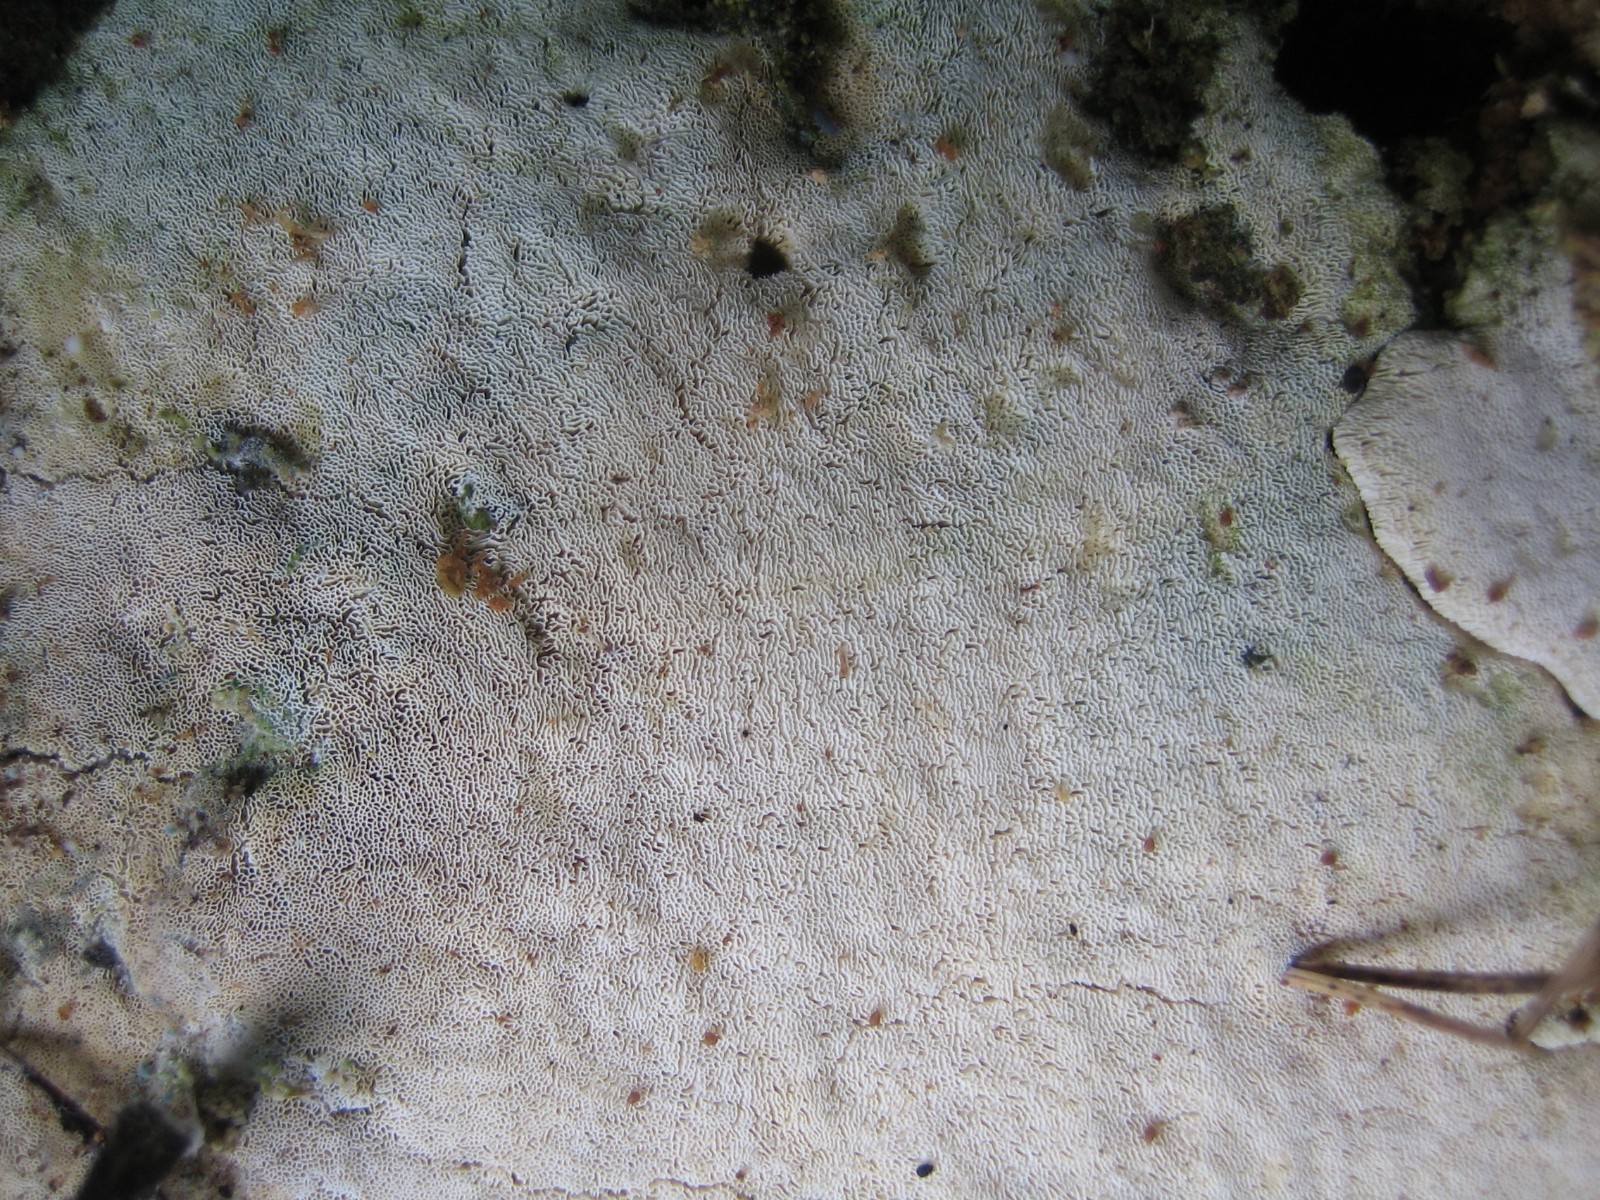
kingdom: Fungi
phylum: Basidiomycota
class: Agaricomycetes
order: Polyporales
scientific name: Polyporales
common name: poresvampordenen
